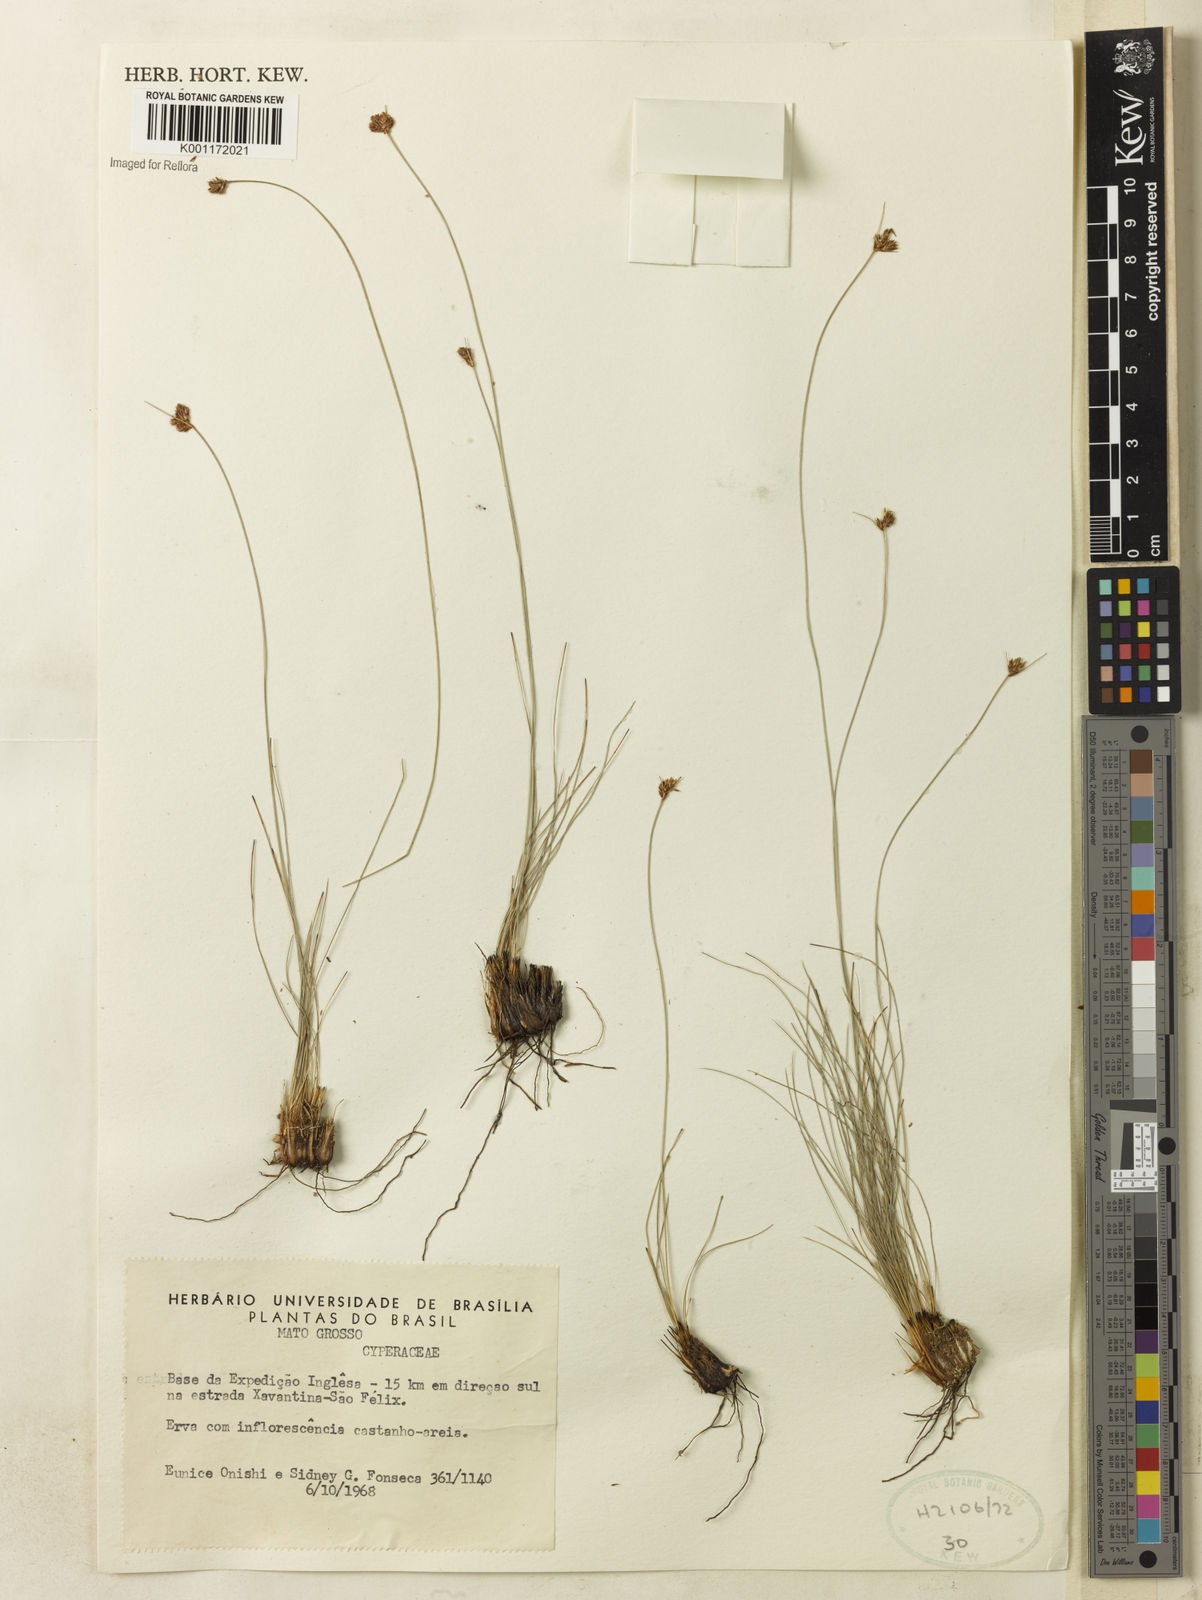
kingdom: Plantae
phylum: Tracheophyta
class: Liliopsida
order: Poales
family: Cyperaceae
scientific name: Cyperaceae
